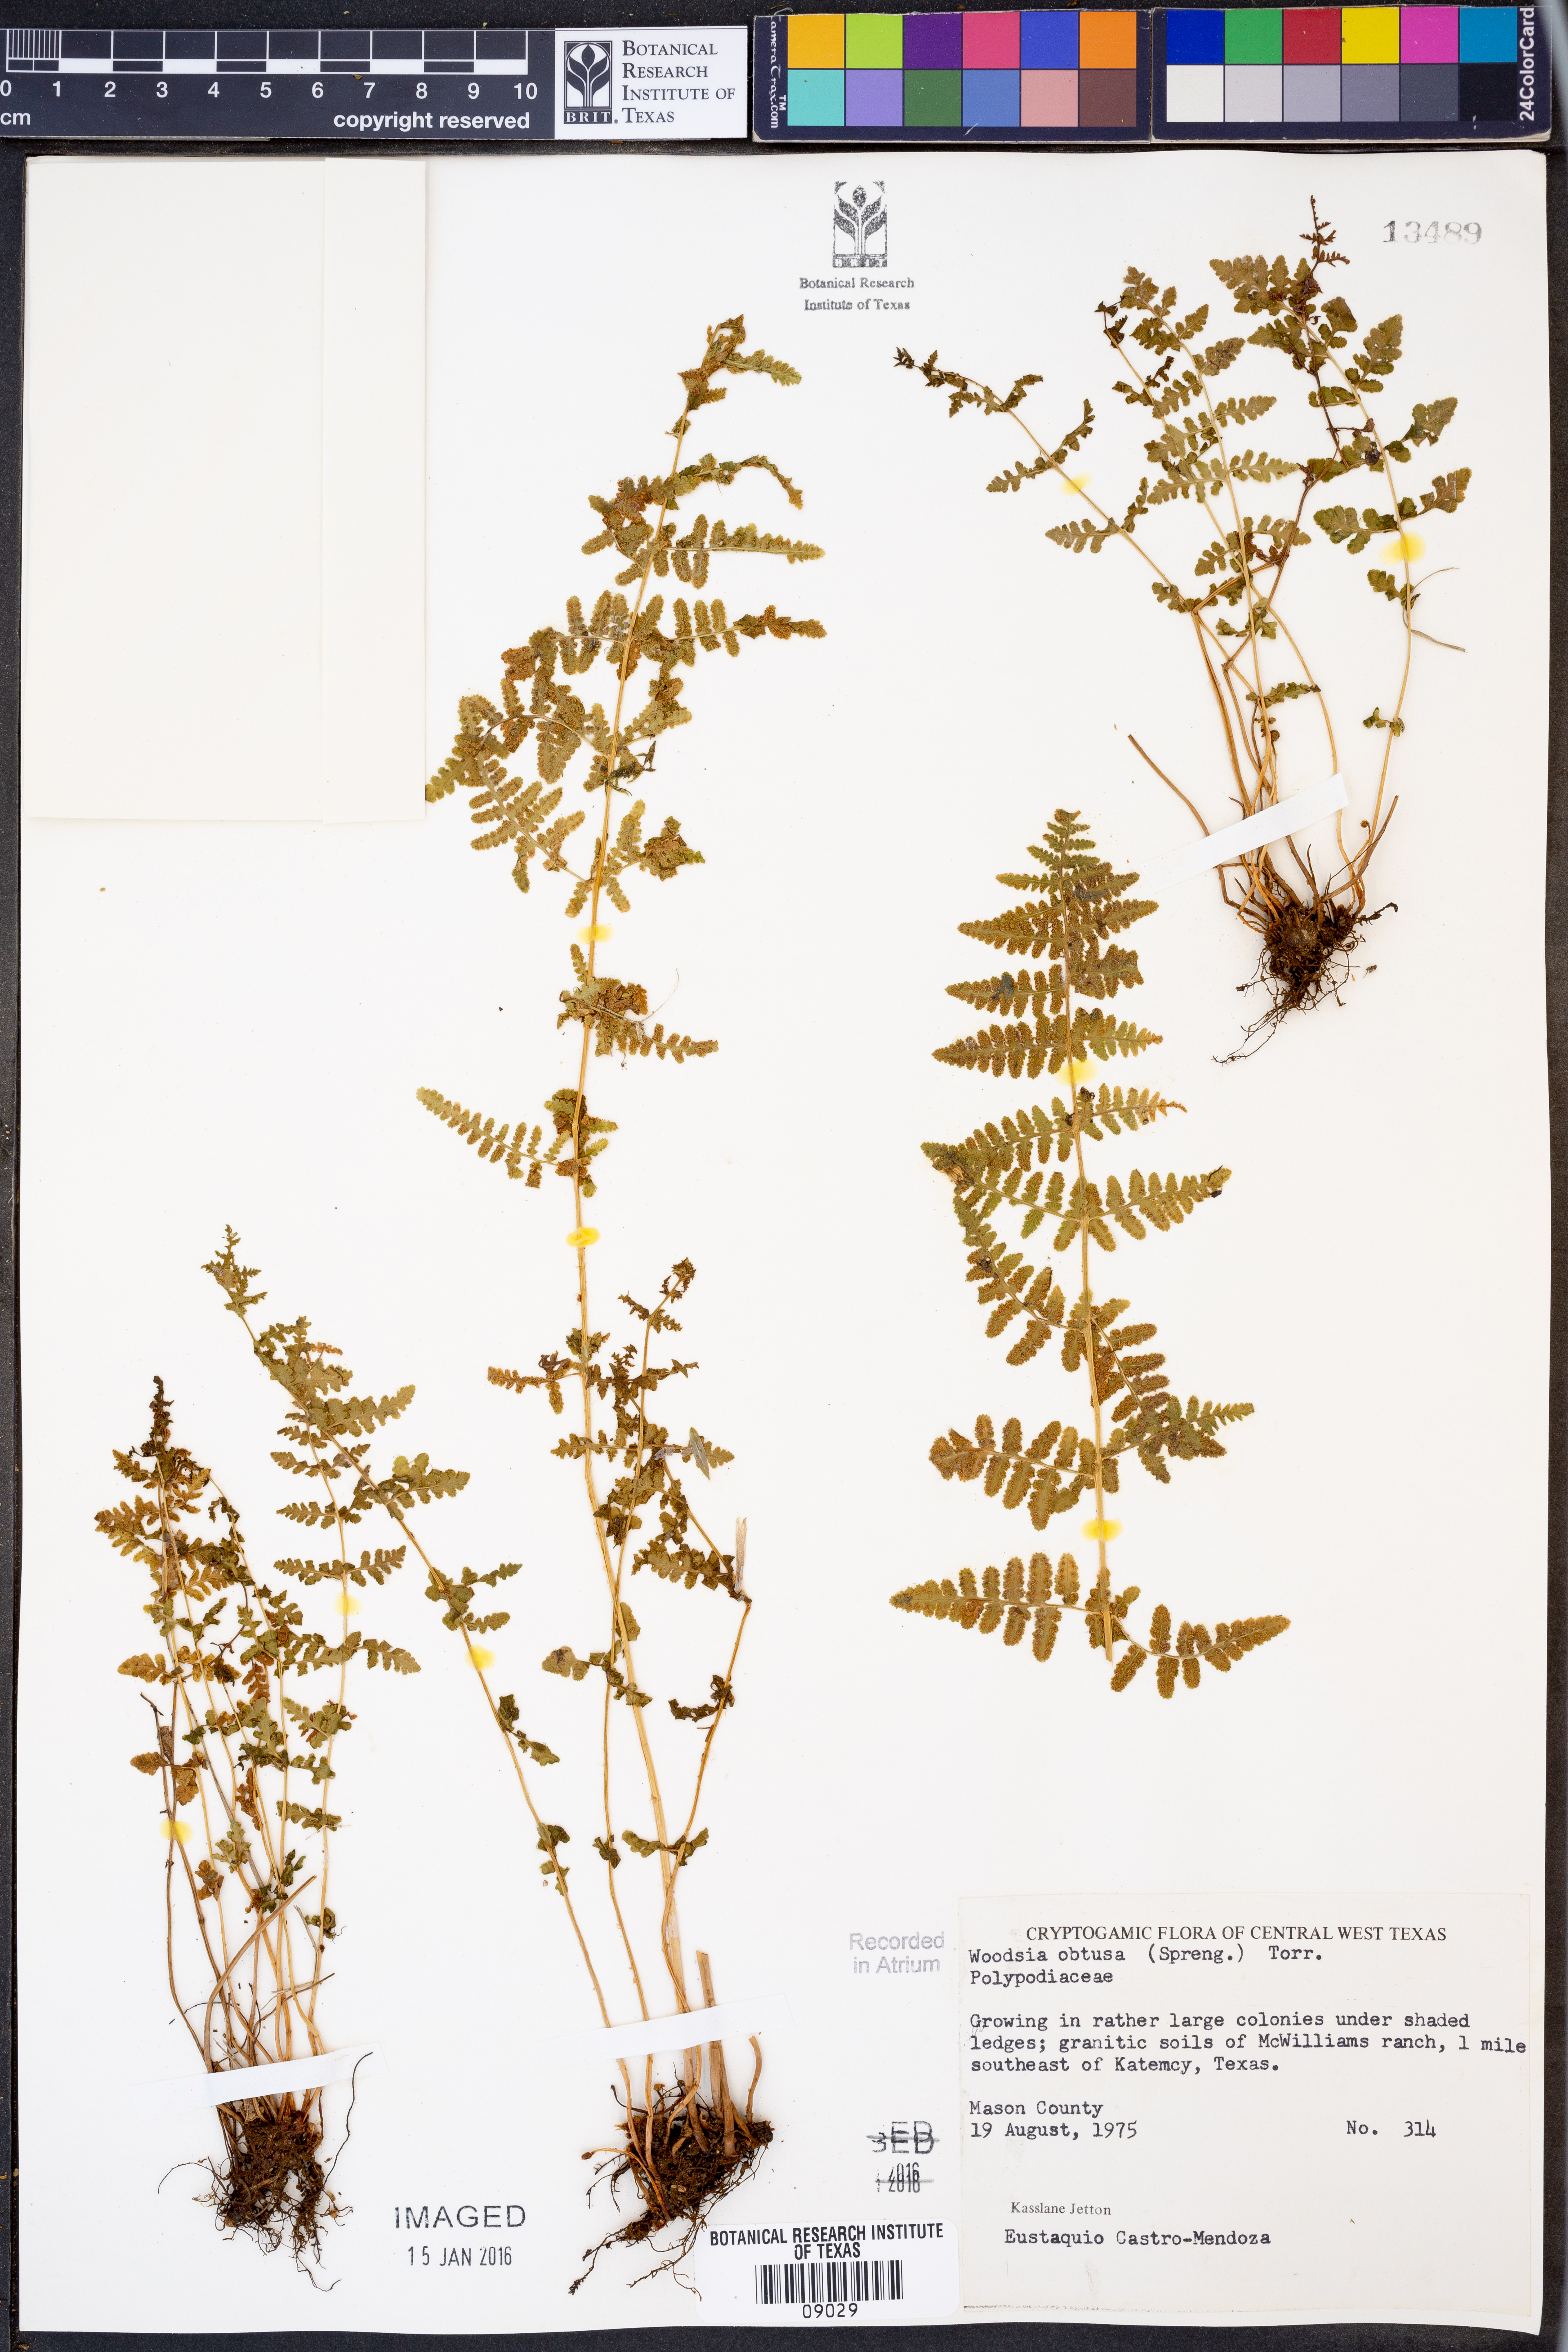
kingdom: Plantae
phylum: Tracheophyta
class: Polypodiopsida
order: Polypodiales
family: Woodsiaceae
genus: Physematium
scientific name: Physematium obtusum
